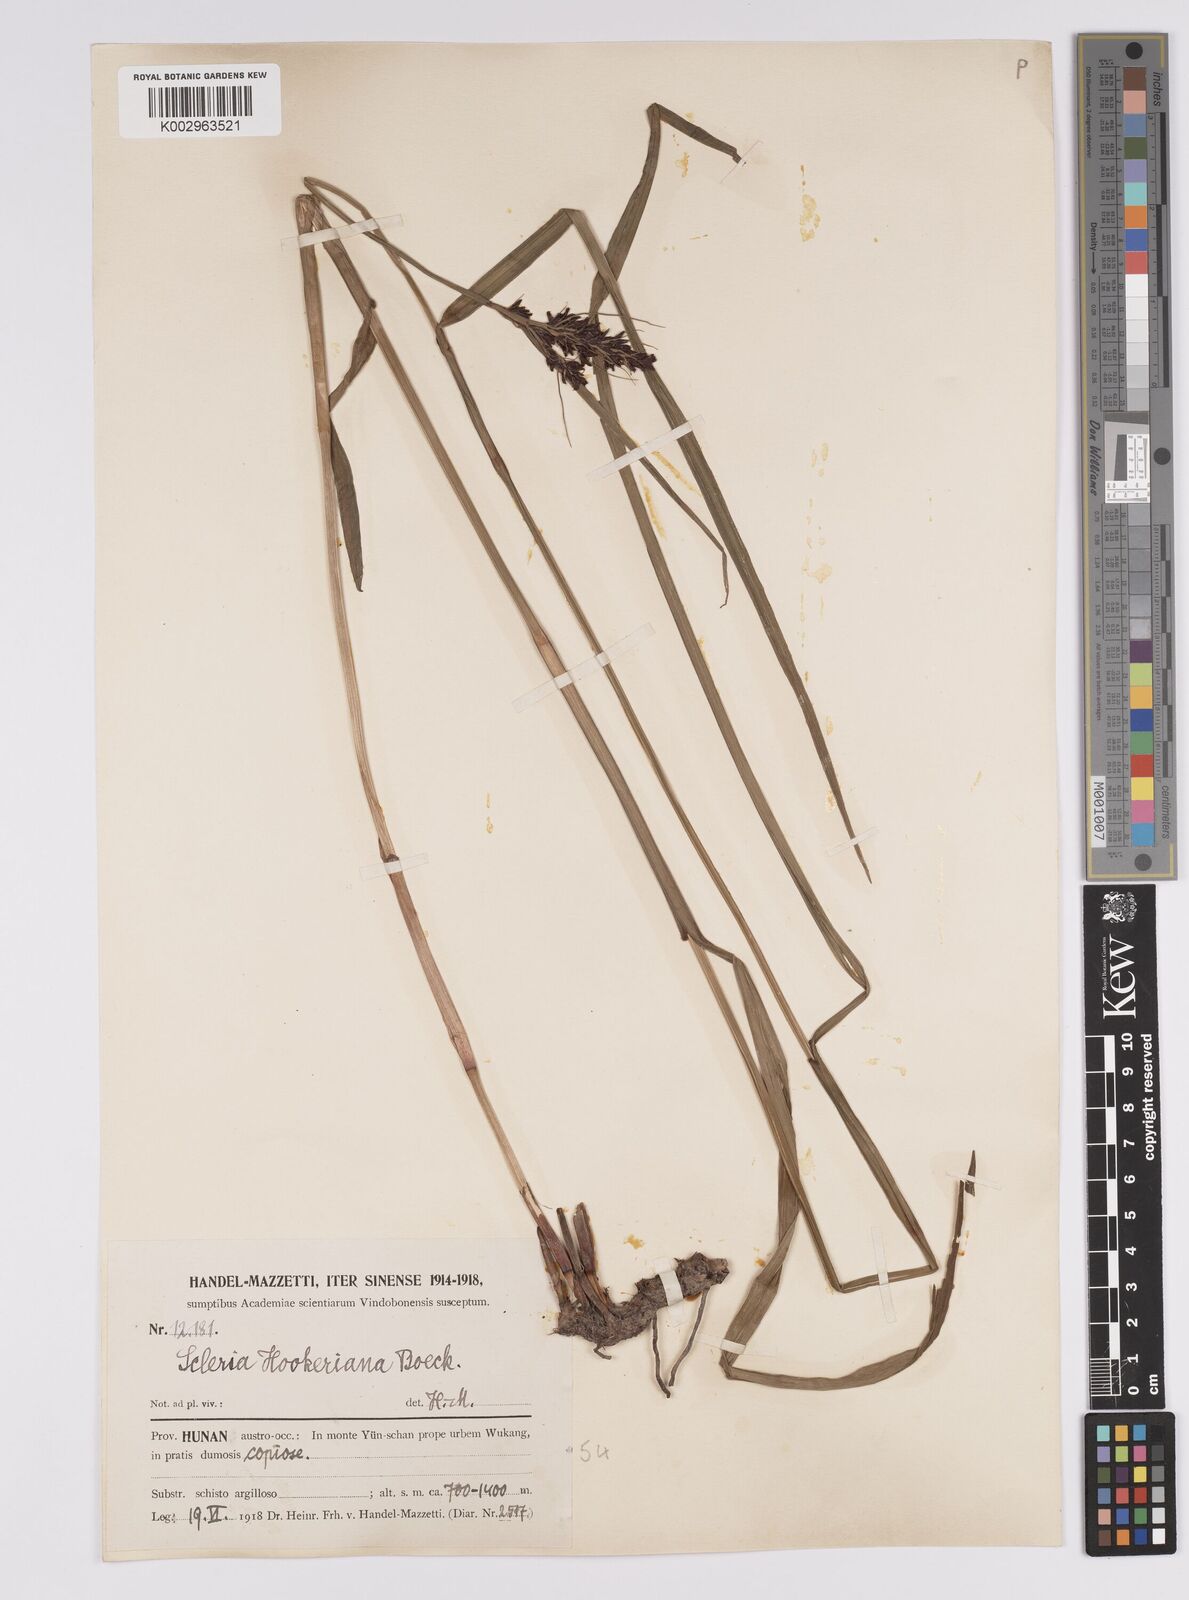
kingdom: Plantae
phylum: Tracheophyta
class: Liliopsida
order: Poales
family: Cyperaceae
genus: Scleria
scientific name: Scleria terrestris
